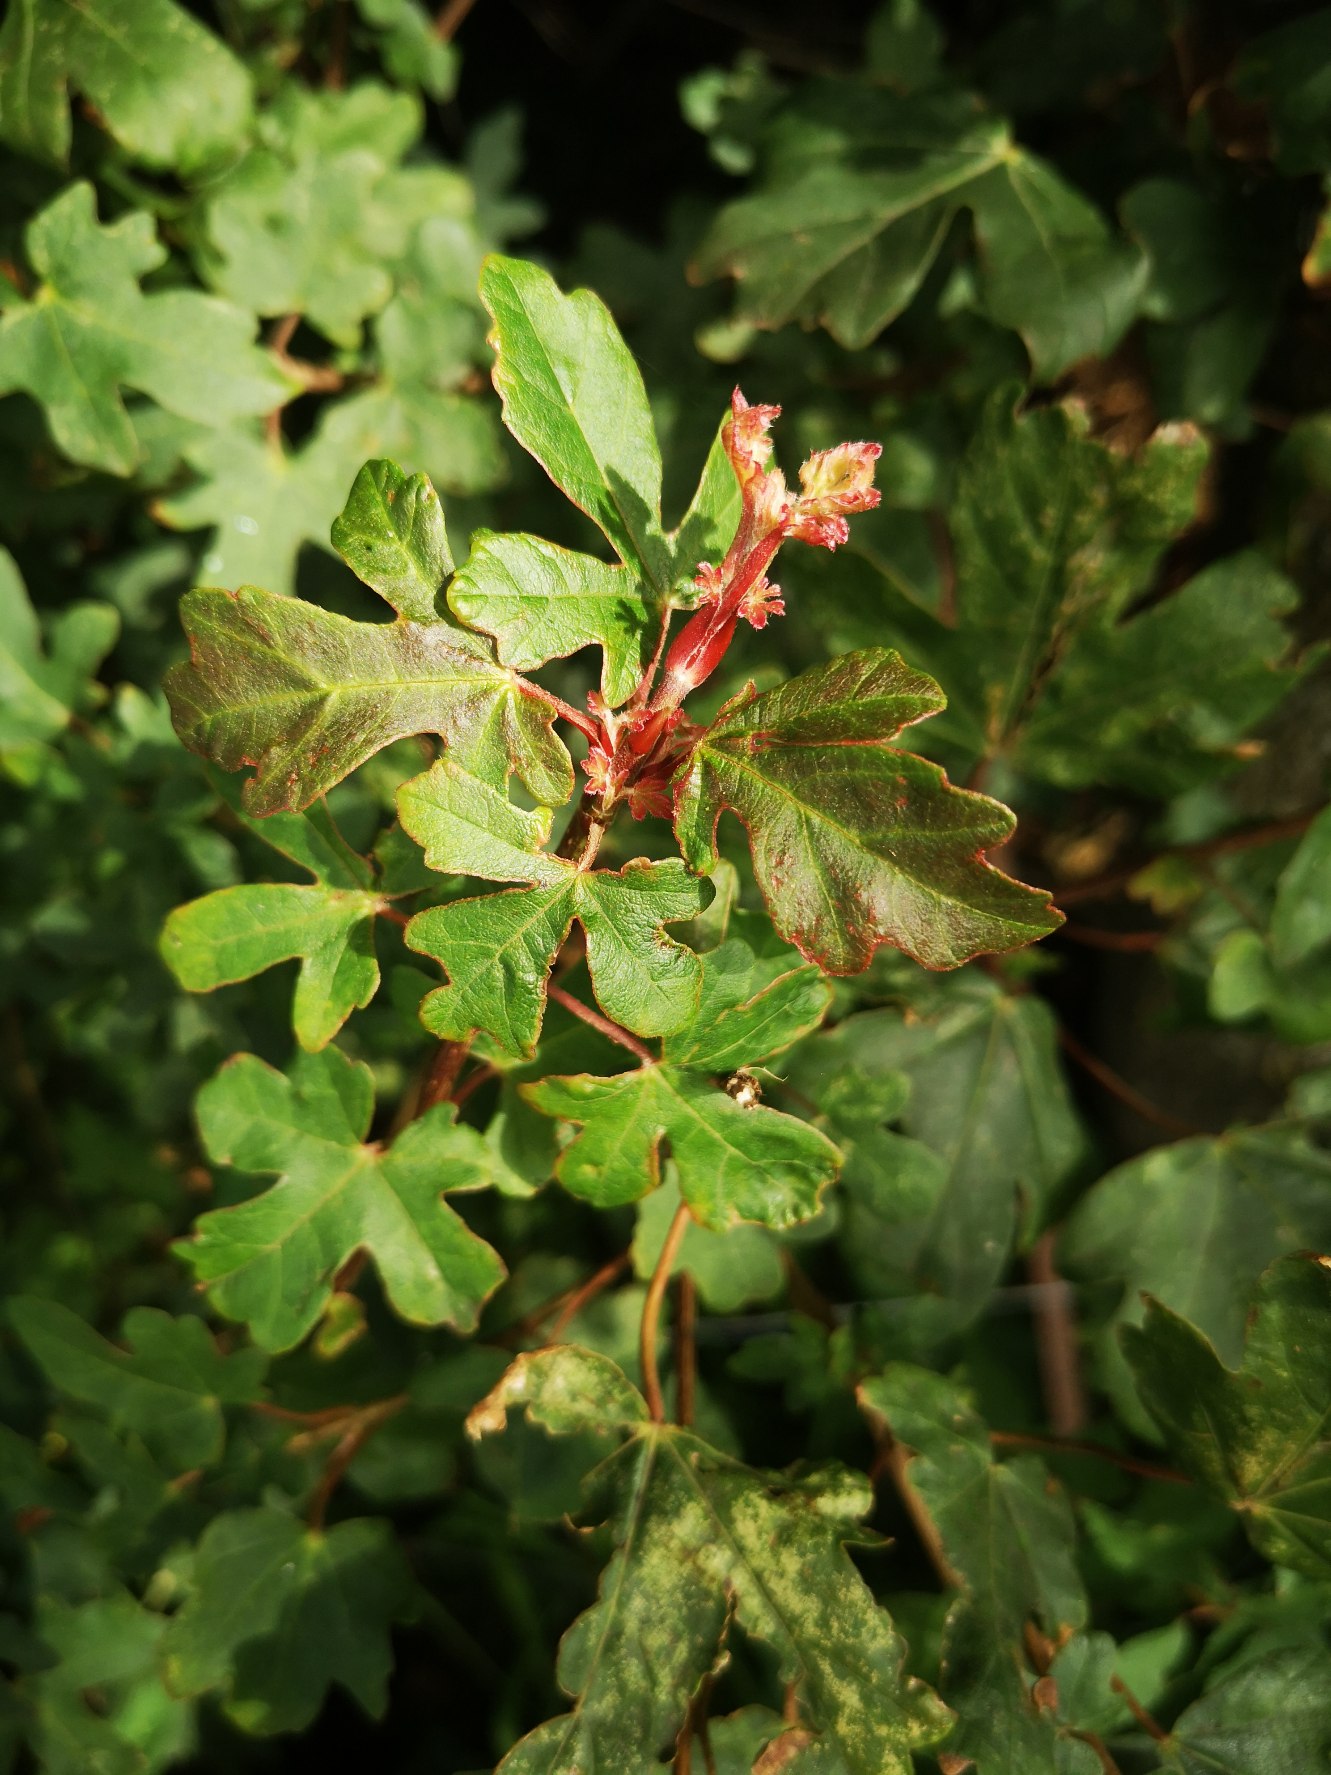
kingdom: Plantae
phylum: Tracheophyta
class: Magnoliopsida
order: Sapindales
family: Sapindaceae
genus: Acer
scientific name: Acer campestre
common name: Navr
